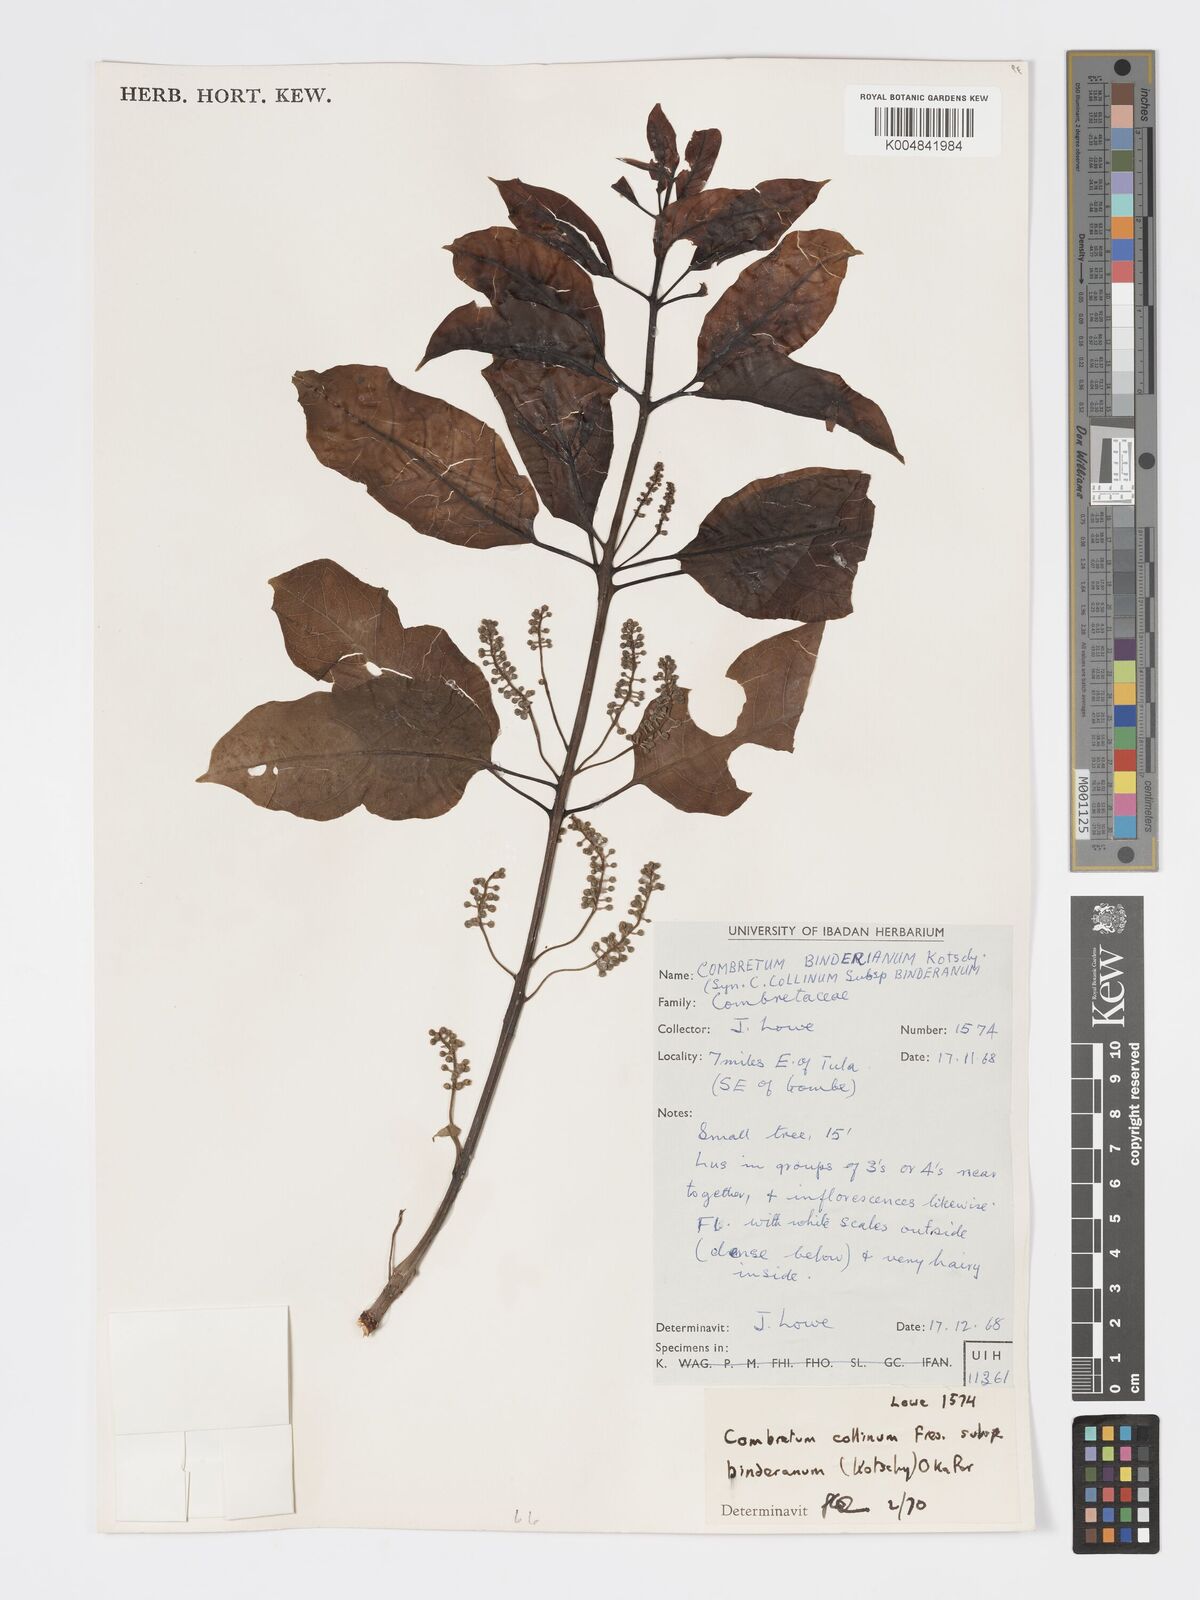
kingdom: Plantae
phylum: Tracheophyta
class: Magnoliopsida
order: Myrtales
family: Combretaceae
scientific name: Combretaceae
